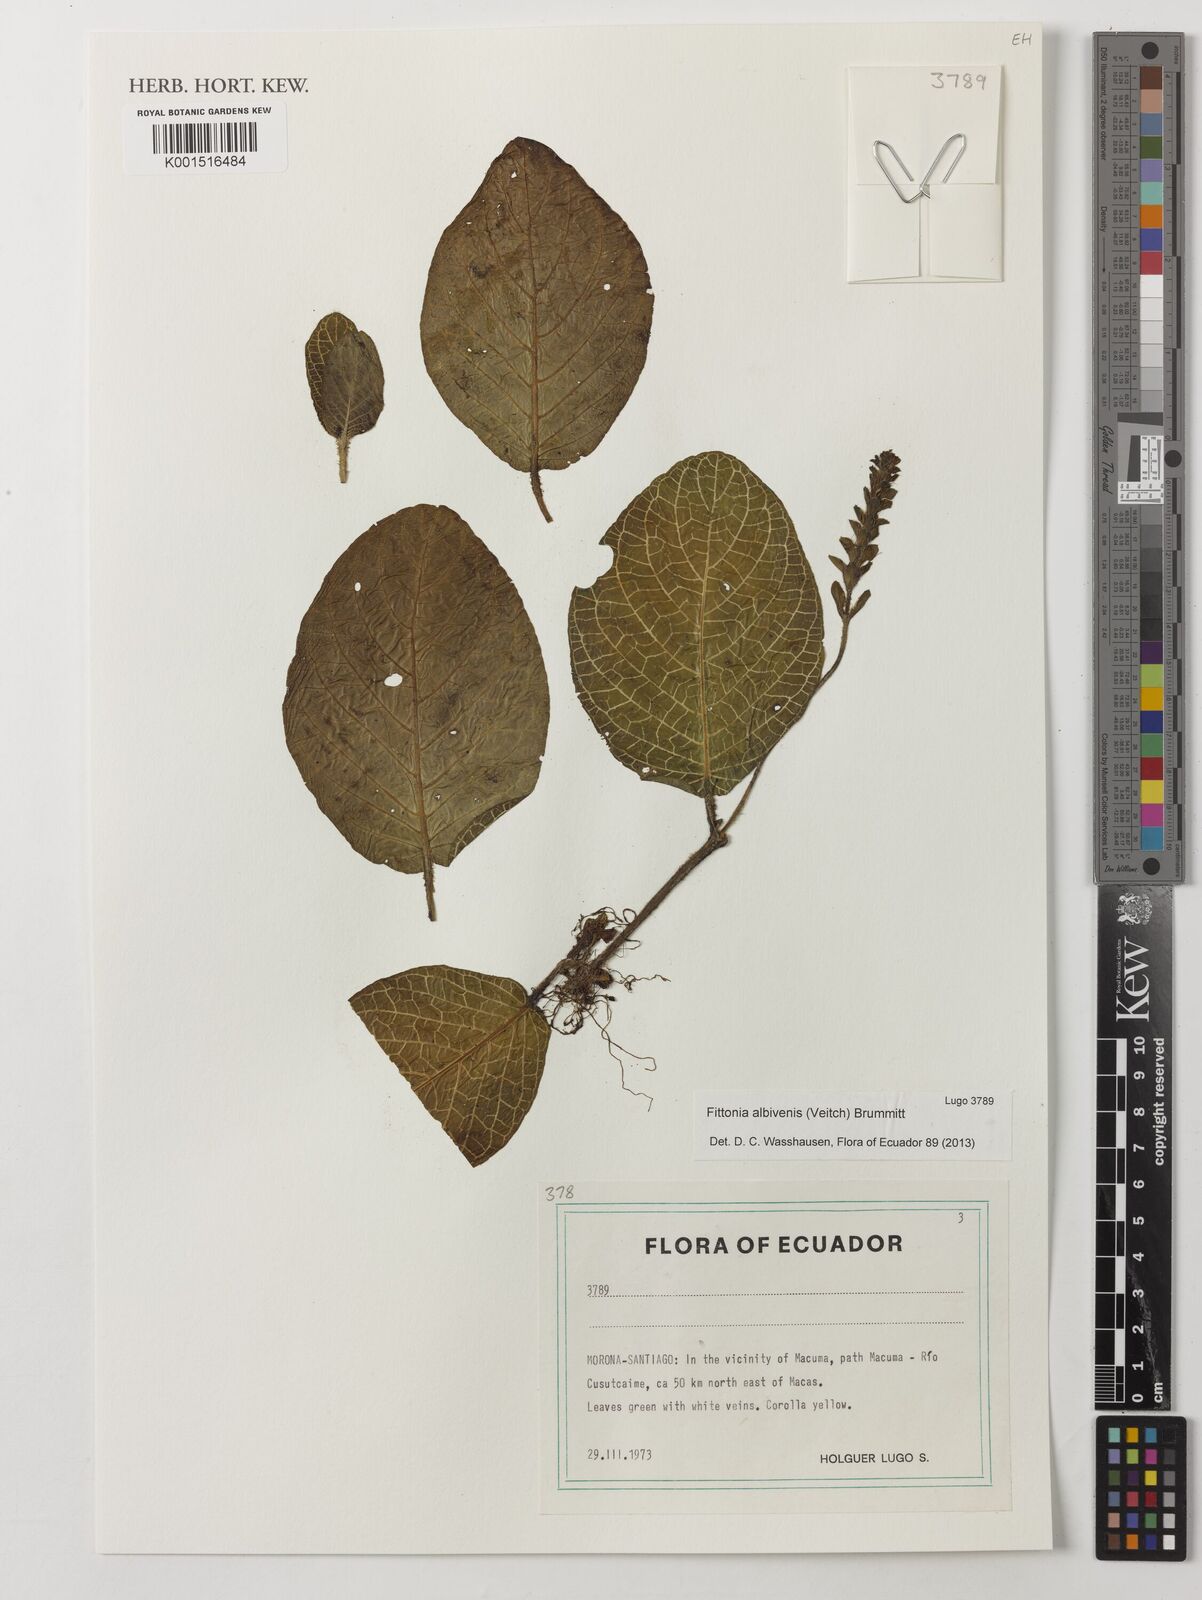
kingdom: Plantae
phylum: Tracheophyta
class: Magnoliopsida
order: Lamiales
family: Acanthaceae
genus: Fittonia
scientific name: Fittonia albivenis
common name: Mosaic-plant
